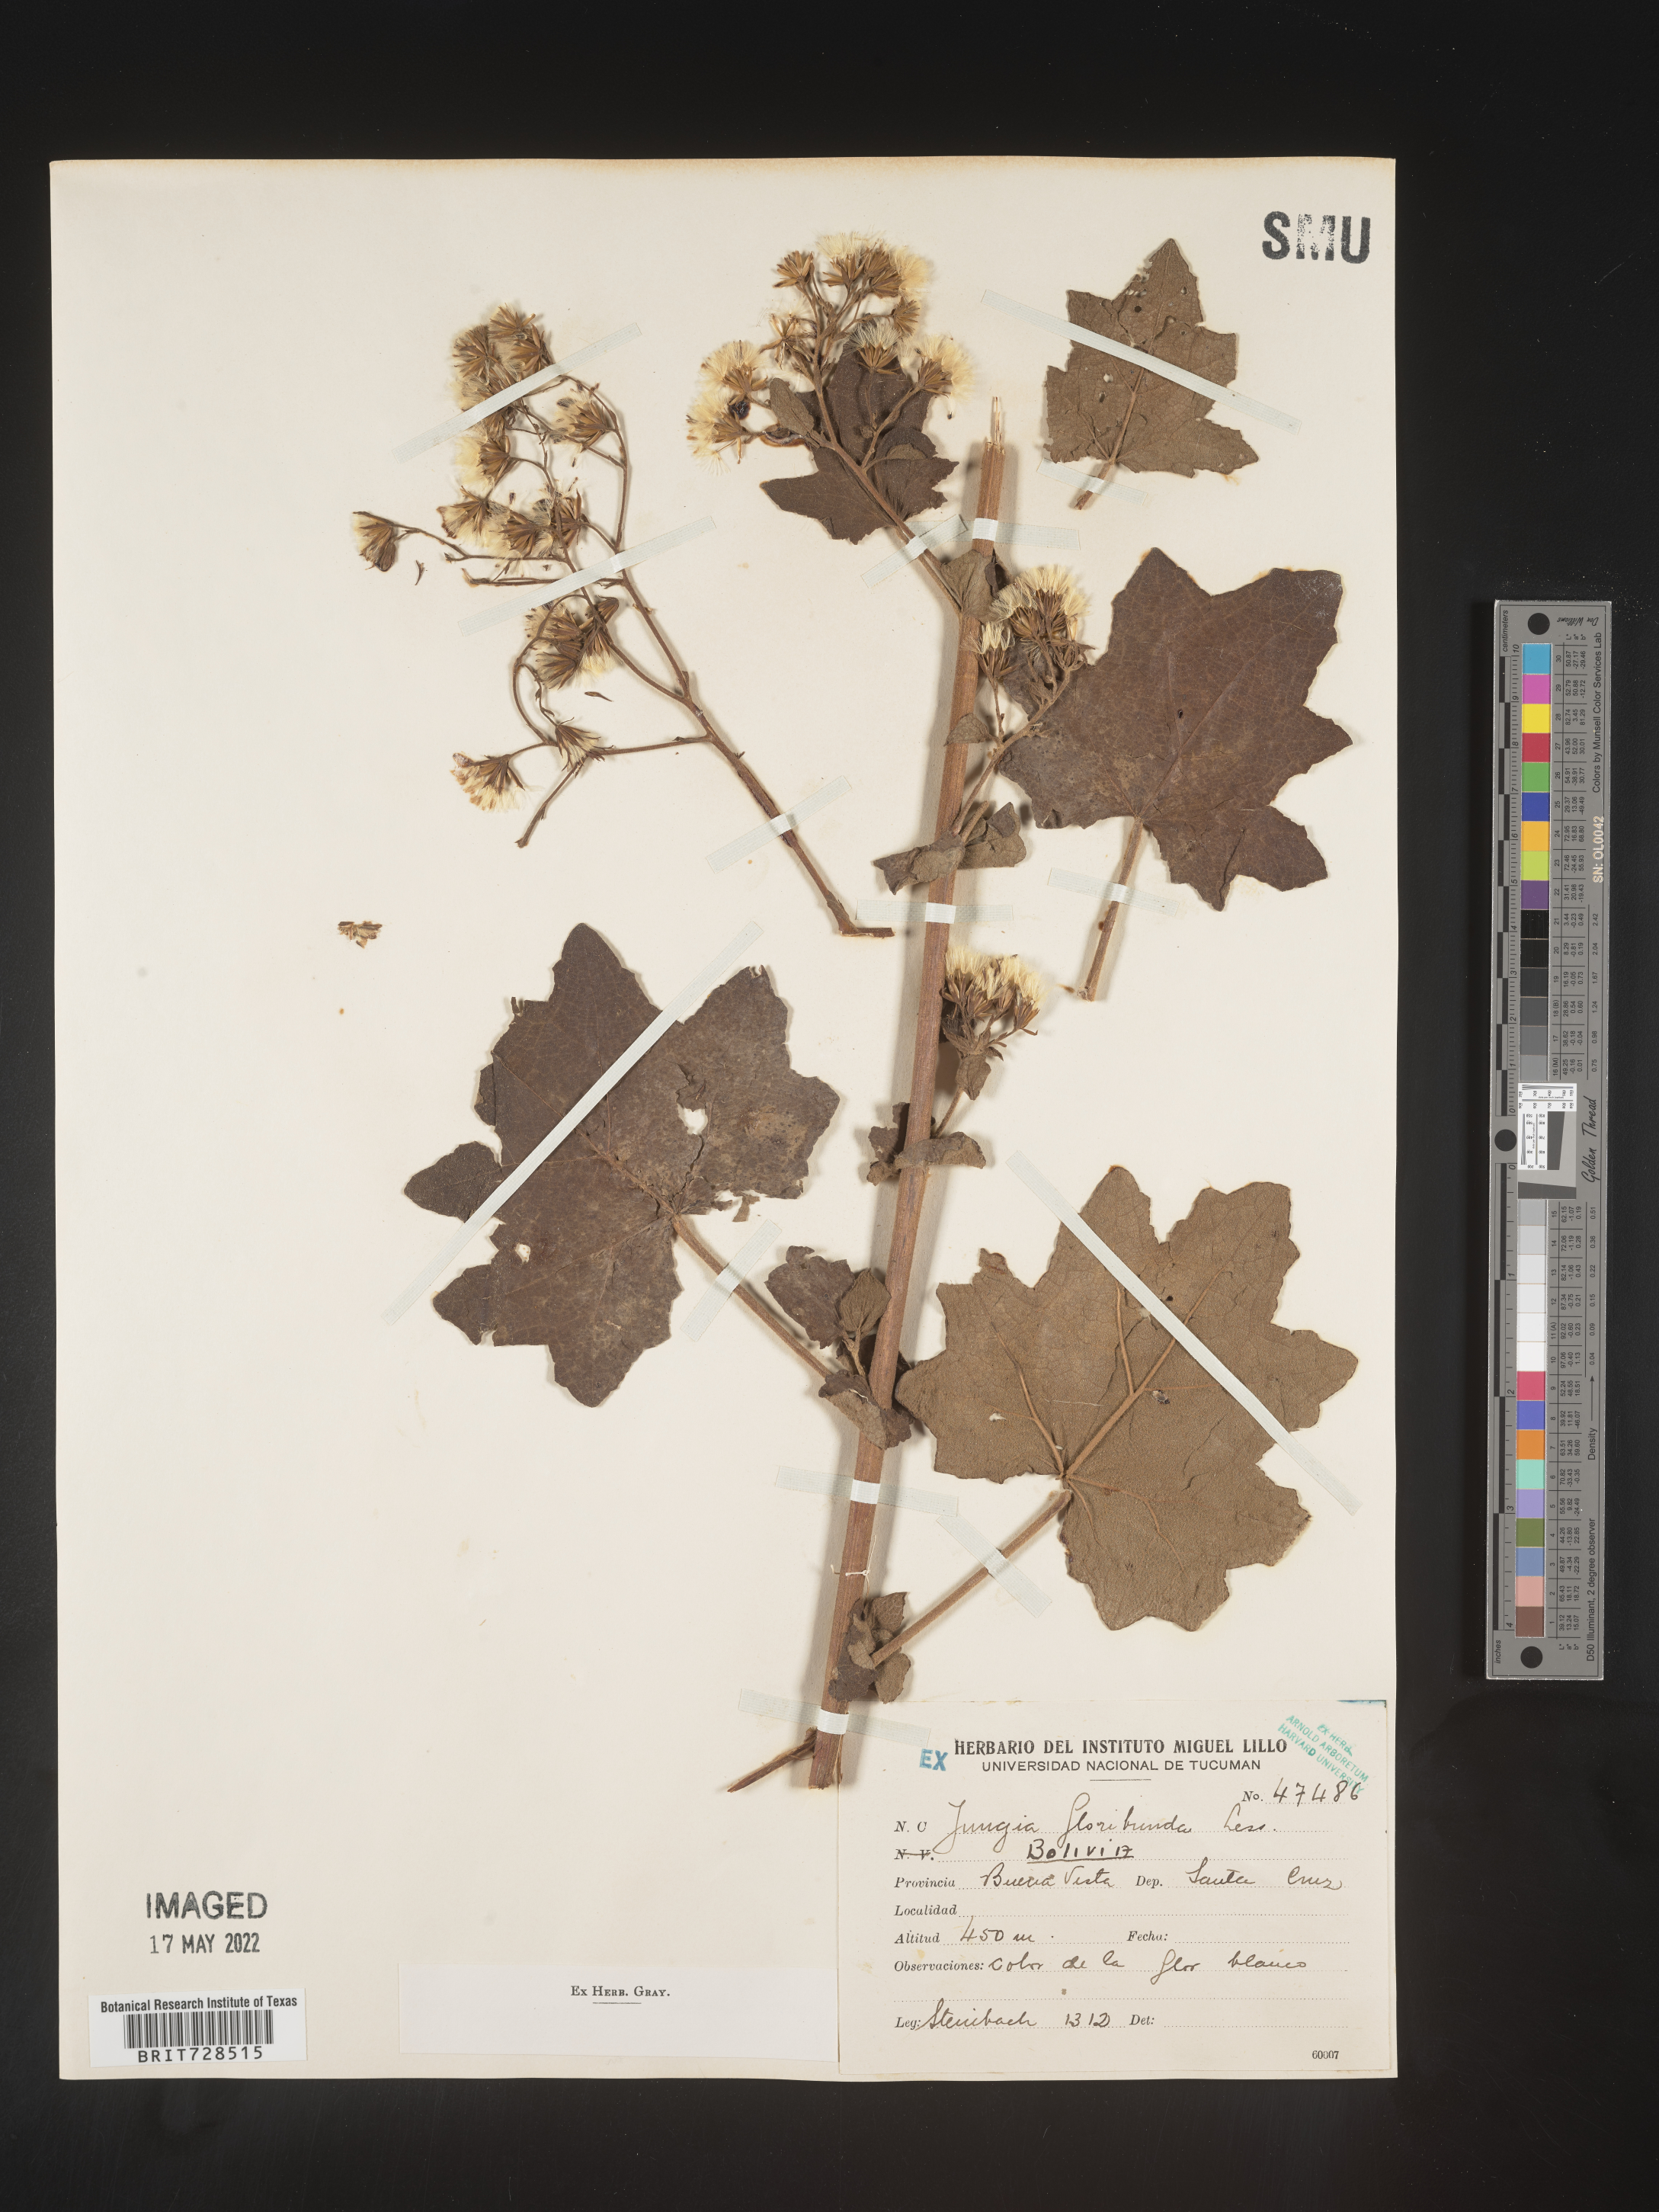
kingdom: Plantae
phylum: Tracheophyta
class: Magnoliopsida
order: Asterales
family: Asteraceae
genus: Jungia
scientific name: Jungia
